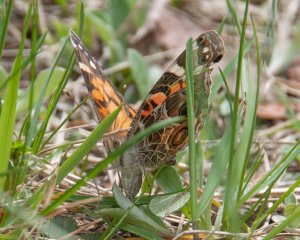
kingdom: Animalia
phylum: Arthropoda
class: Insecta
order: Lepidoptera
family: Nymphalidae
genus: Vanessa
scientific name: Vanessa virginiensis
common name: American Lady
